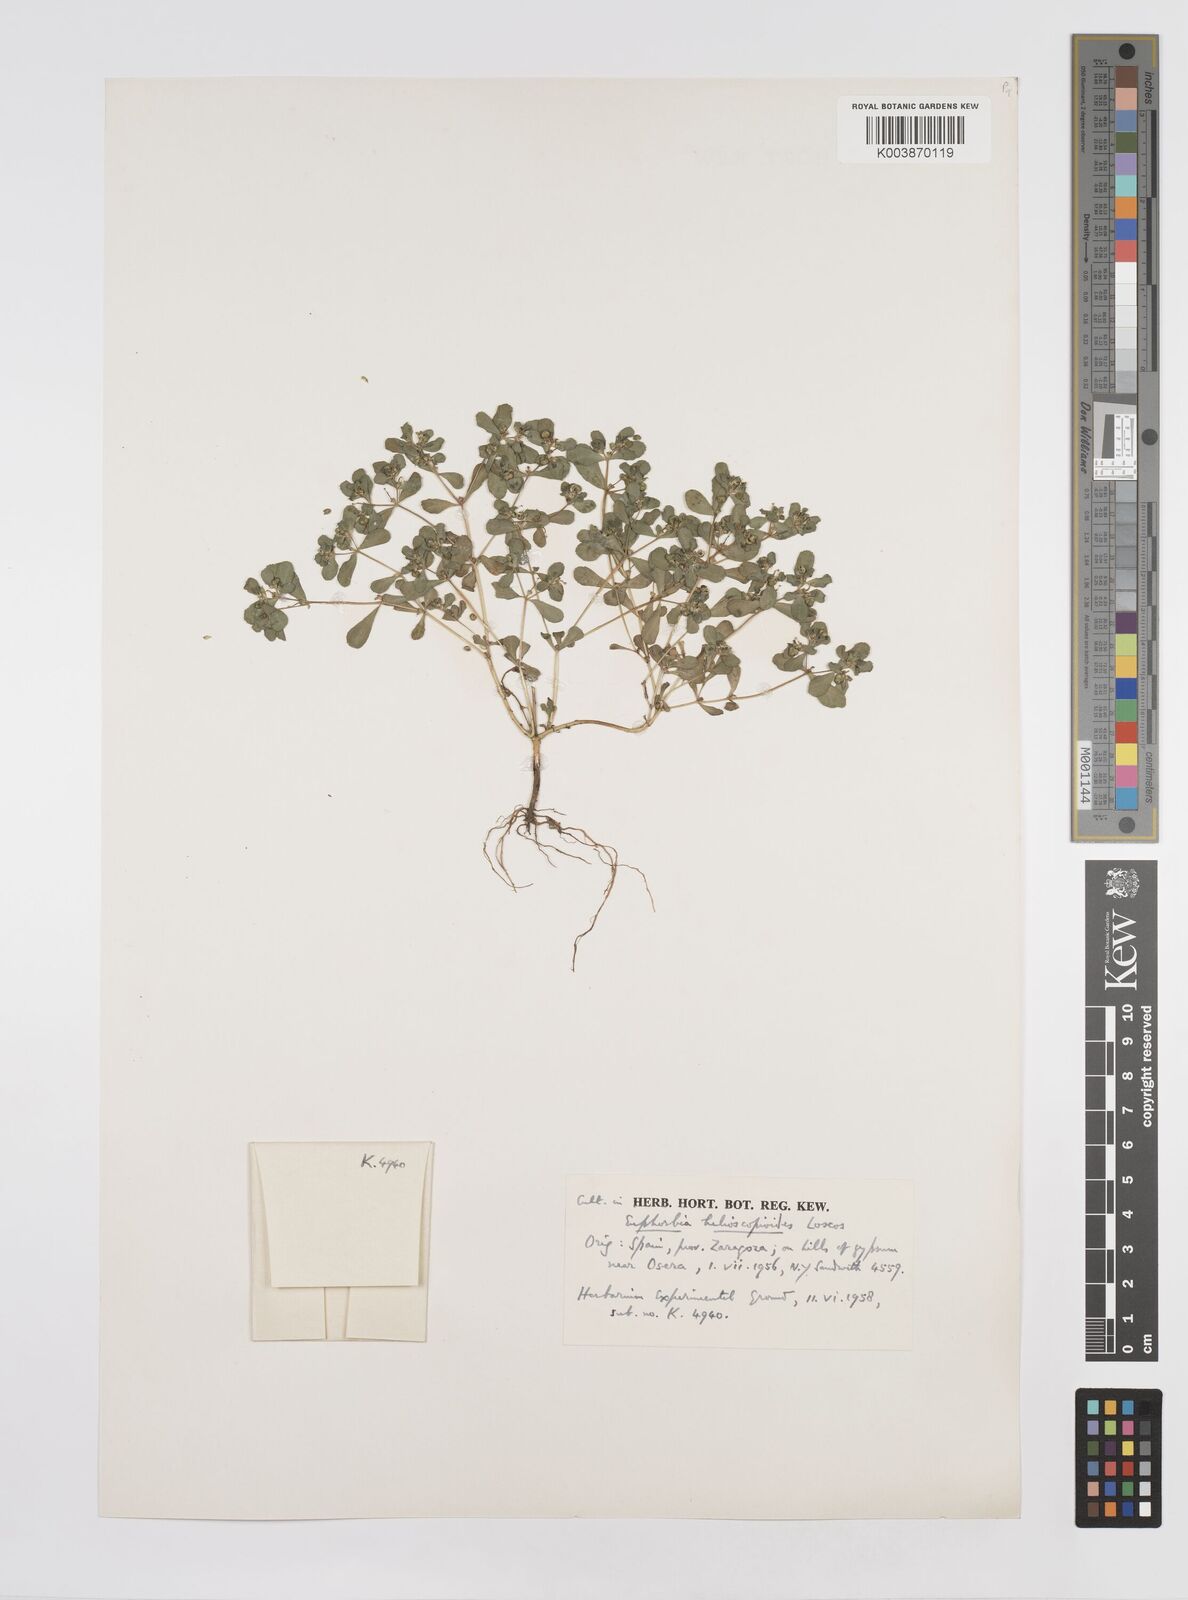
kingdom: Plantae
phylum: Tracheophyta
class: Magnoliopsida
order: Malpighiales
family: Euphorbiaceae
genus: Euphorbia
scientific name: Euphorbia helioscopia
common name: Sun spurge
